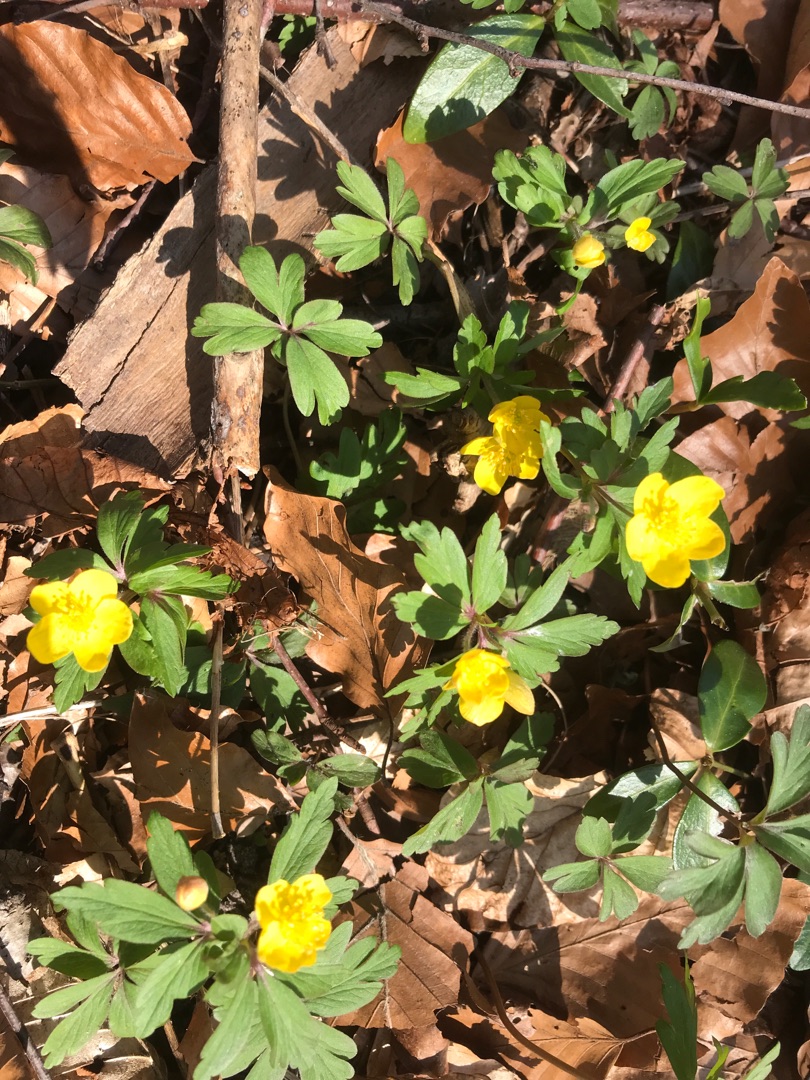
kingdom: Plantae
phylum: Tracheophyta
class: Magnoliopsida
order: Ranunculales
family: Ranunculaceae
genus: Anemone
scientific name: Anemone ranunculoides
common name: Gul anemone
